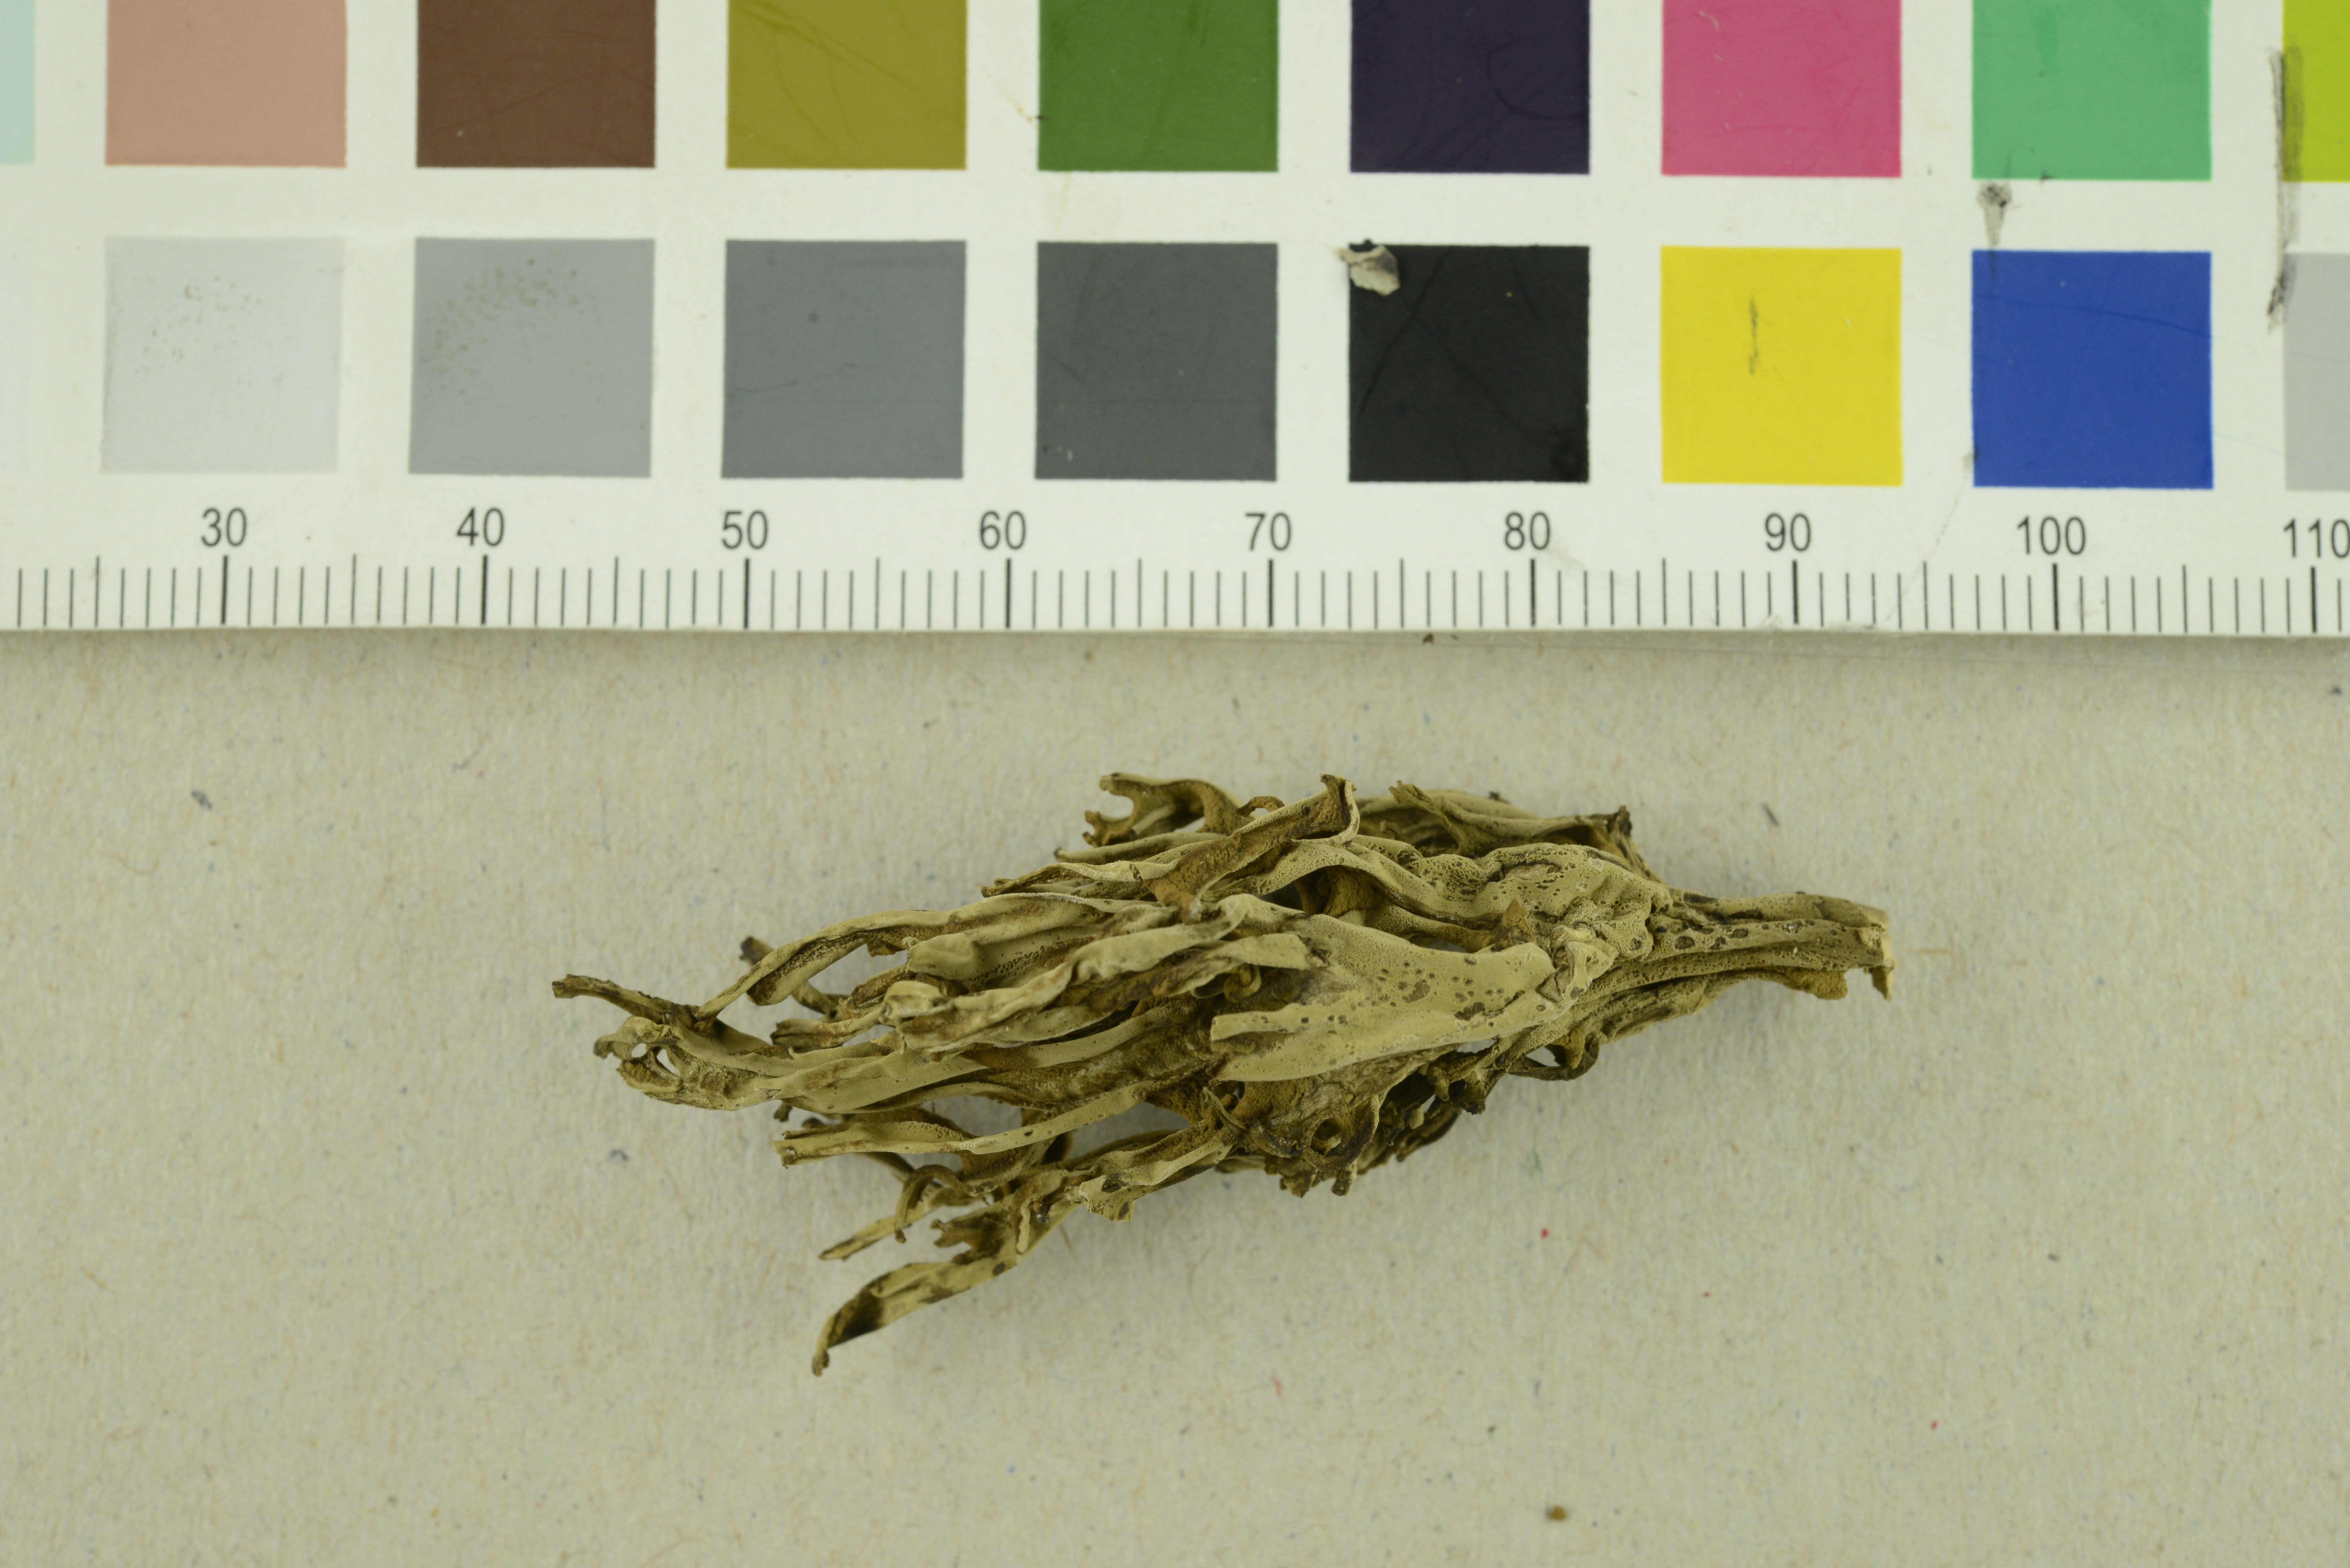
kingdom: Fungi
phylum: Basidiomycota
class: Agaricomycetes
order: Gomphales
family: Gomphaceae
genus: Phaeoclavulina
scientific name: Phaeoclavulina macrospora
